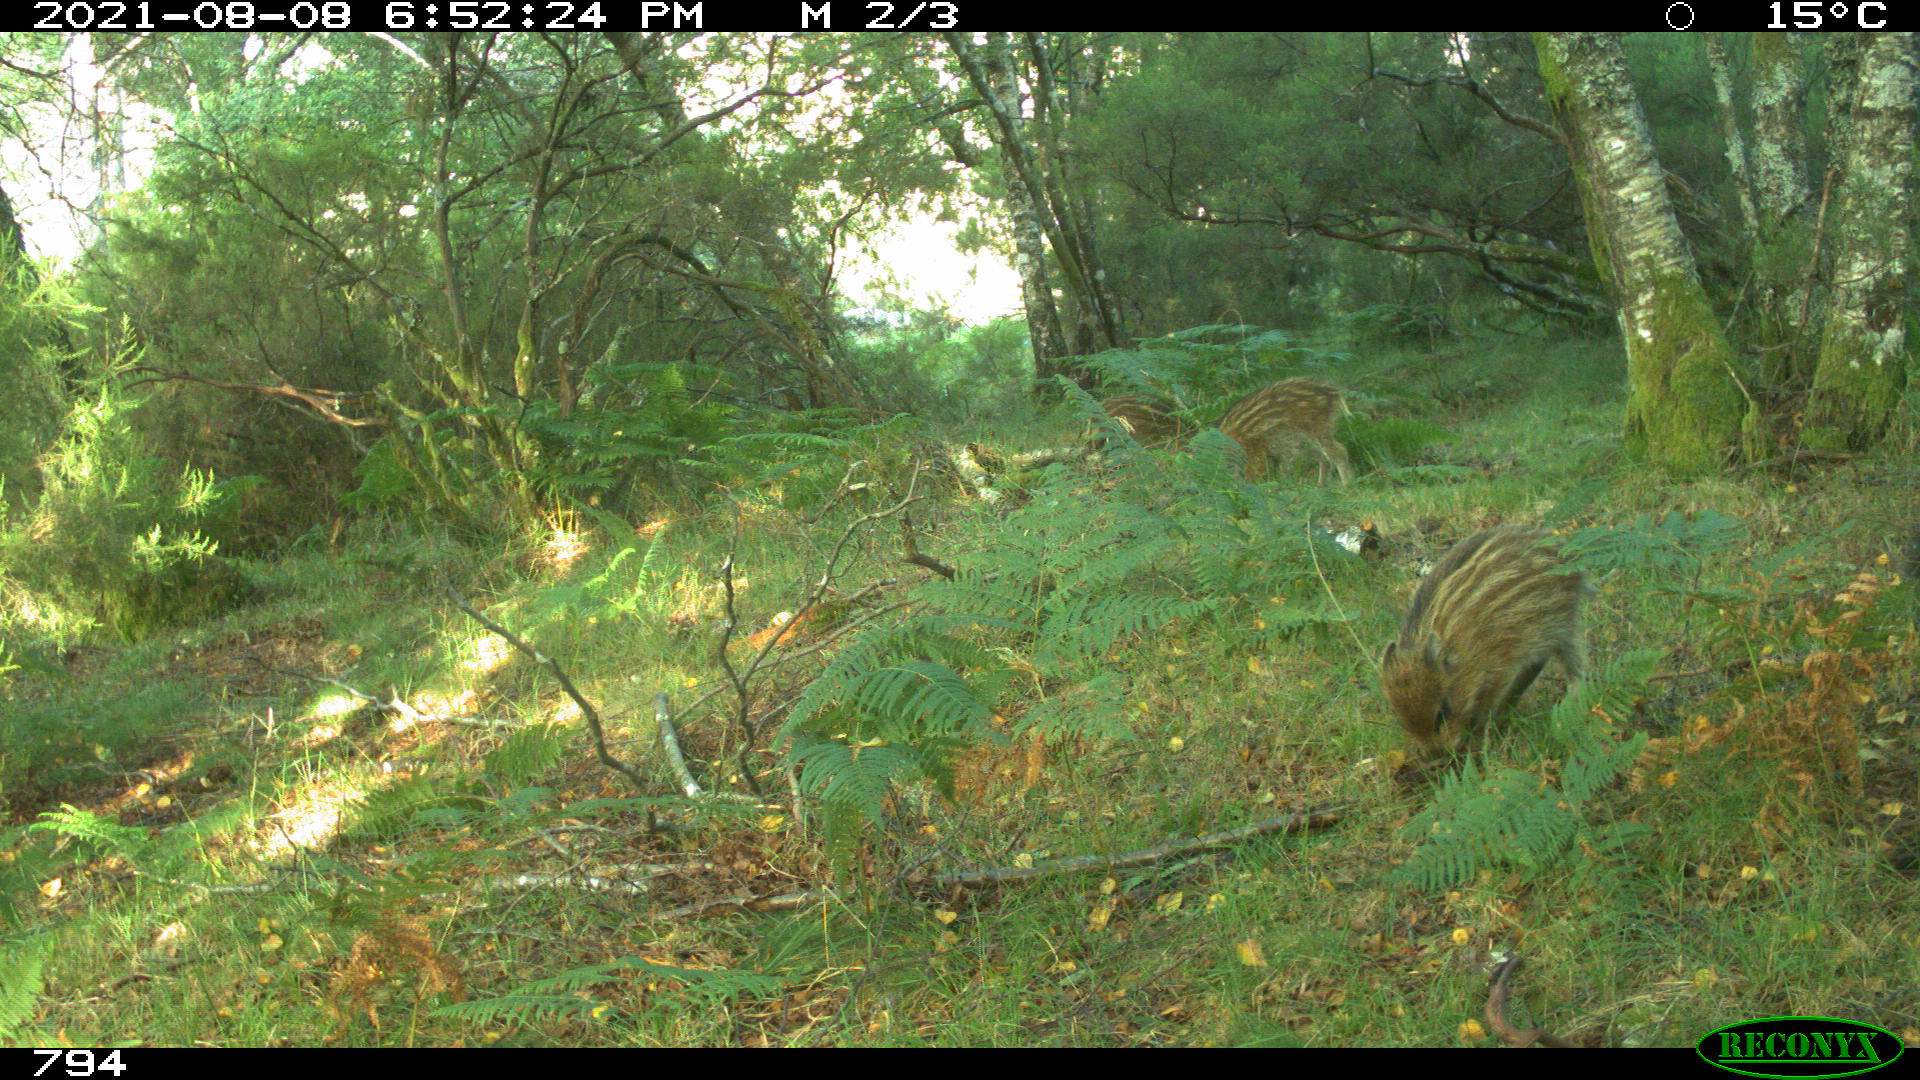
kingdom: Animalia
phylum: Chordata
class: Mammalia
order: Artiodactyla
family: Suidae
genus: Sus
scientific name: Sus scrofa
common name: Wild boar
